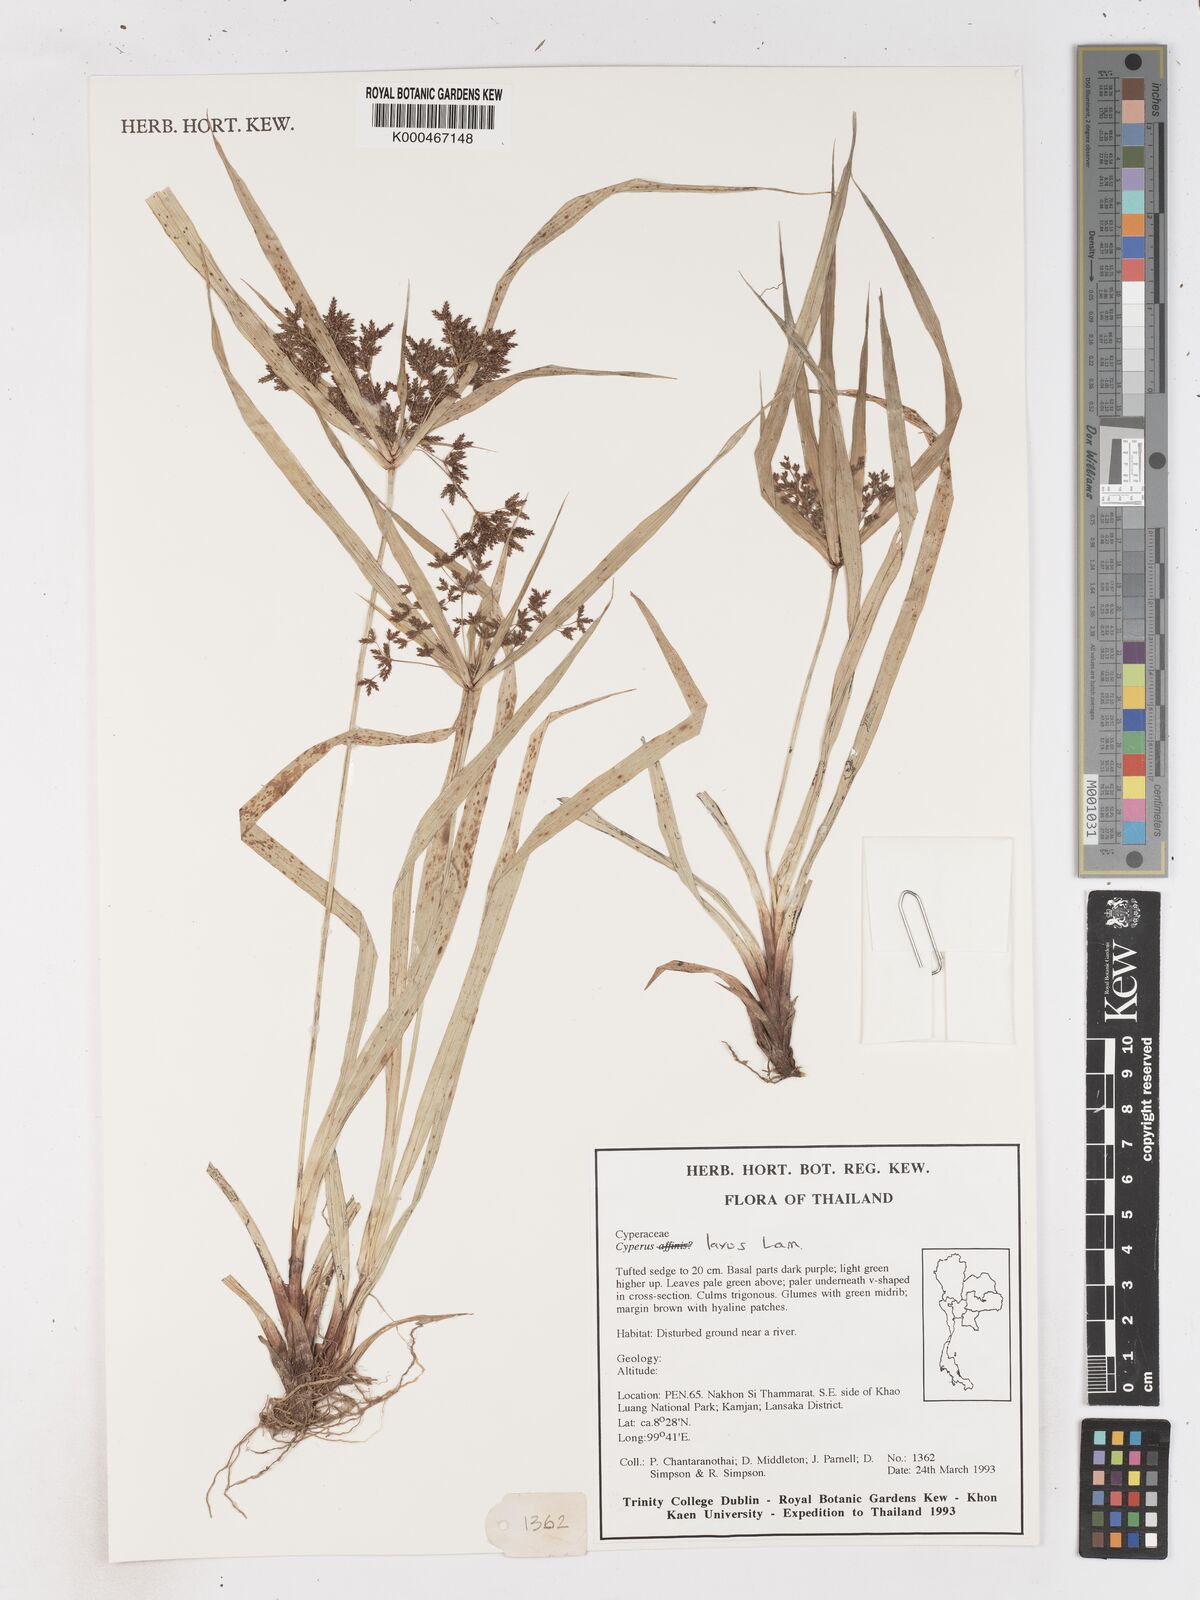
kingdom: Plantae
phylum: Tracheophyta
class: Liliopsida
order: Poales
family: Cyperaceae
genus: Cyperus
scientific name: Cyperus diffusus
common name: Dwarf umbrella grass
